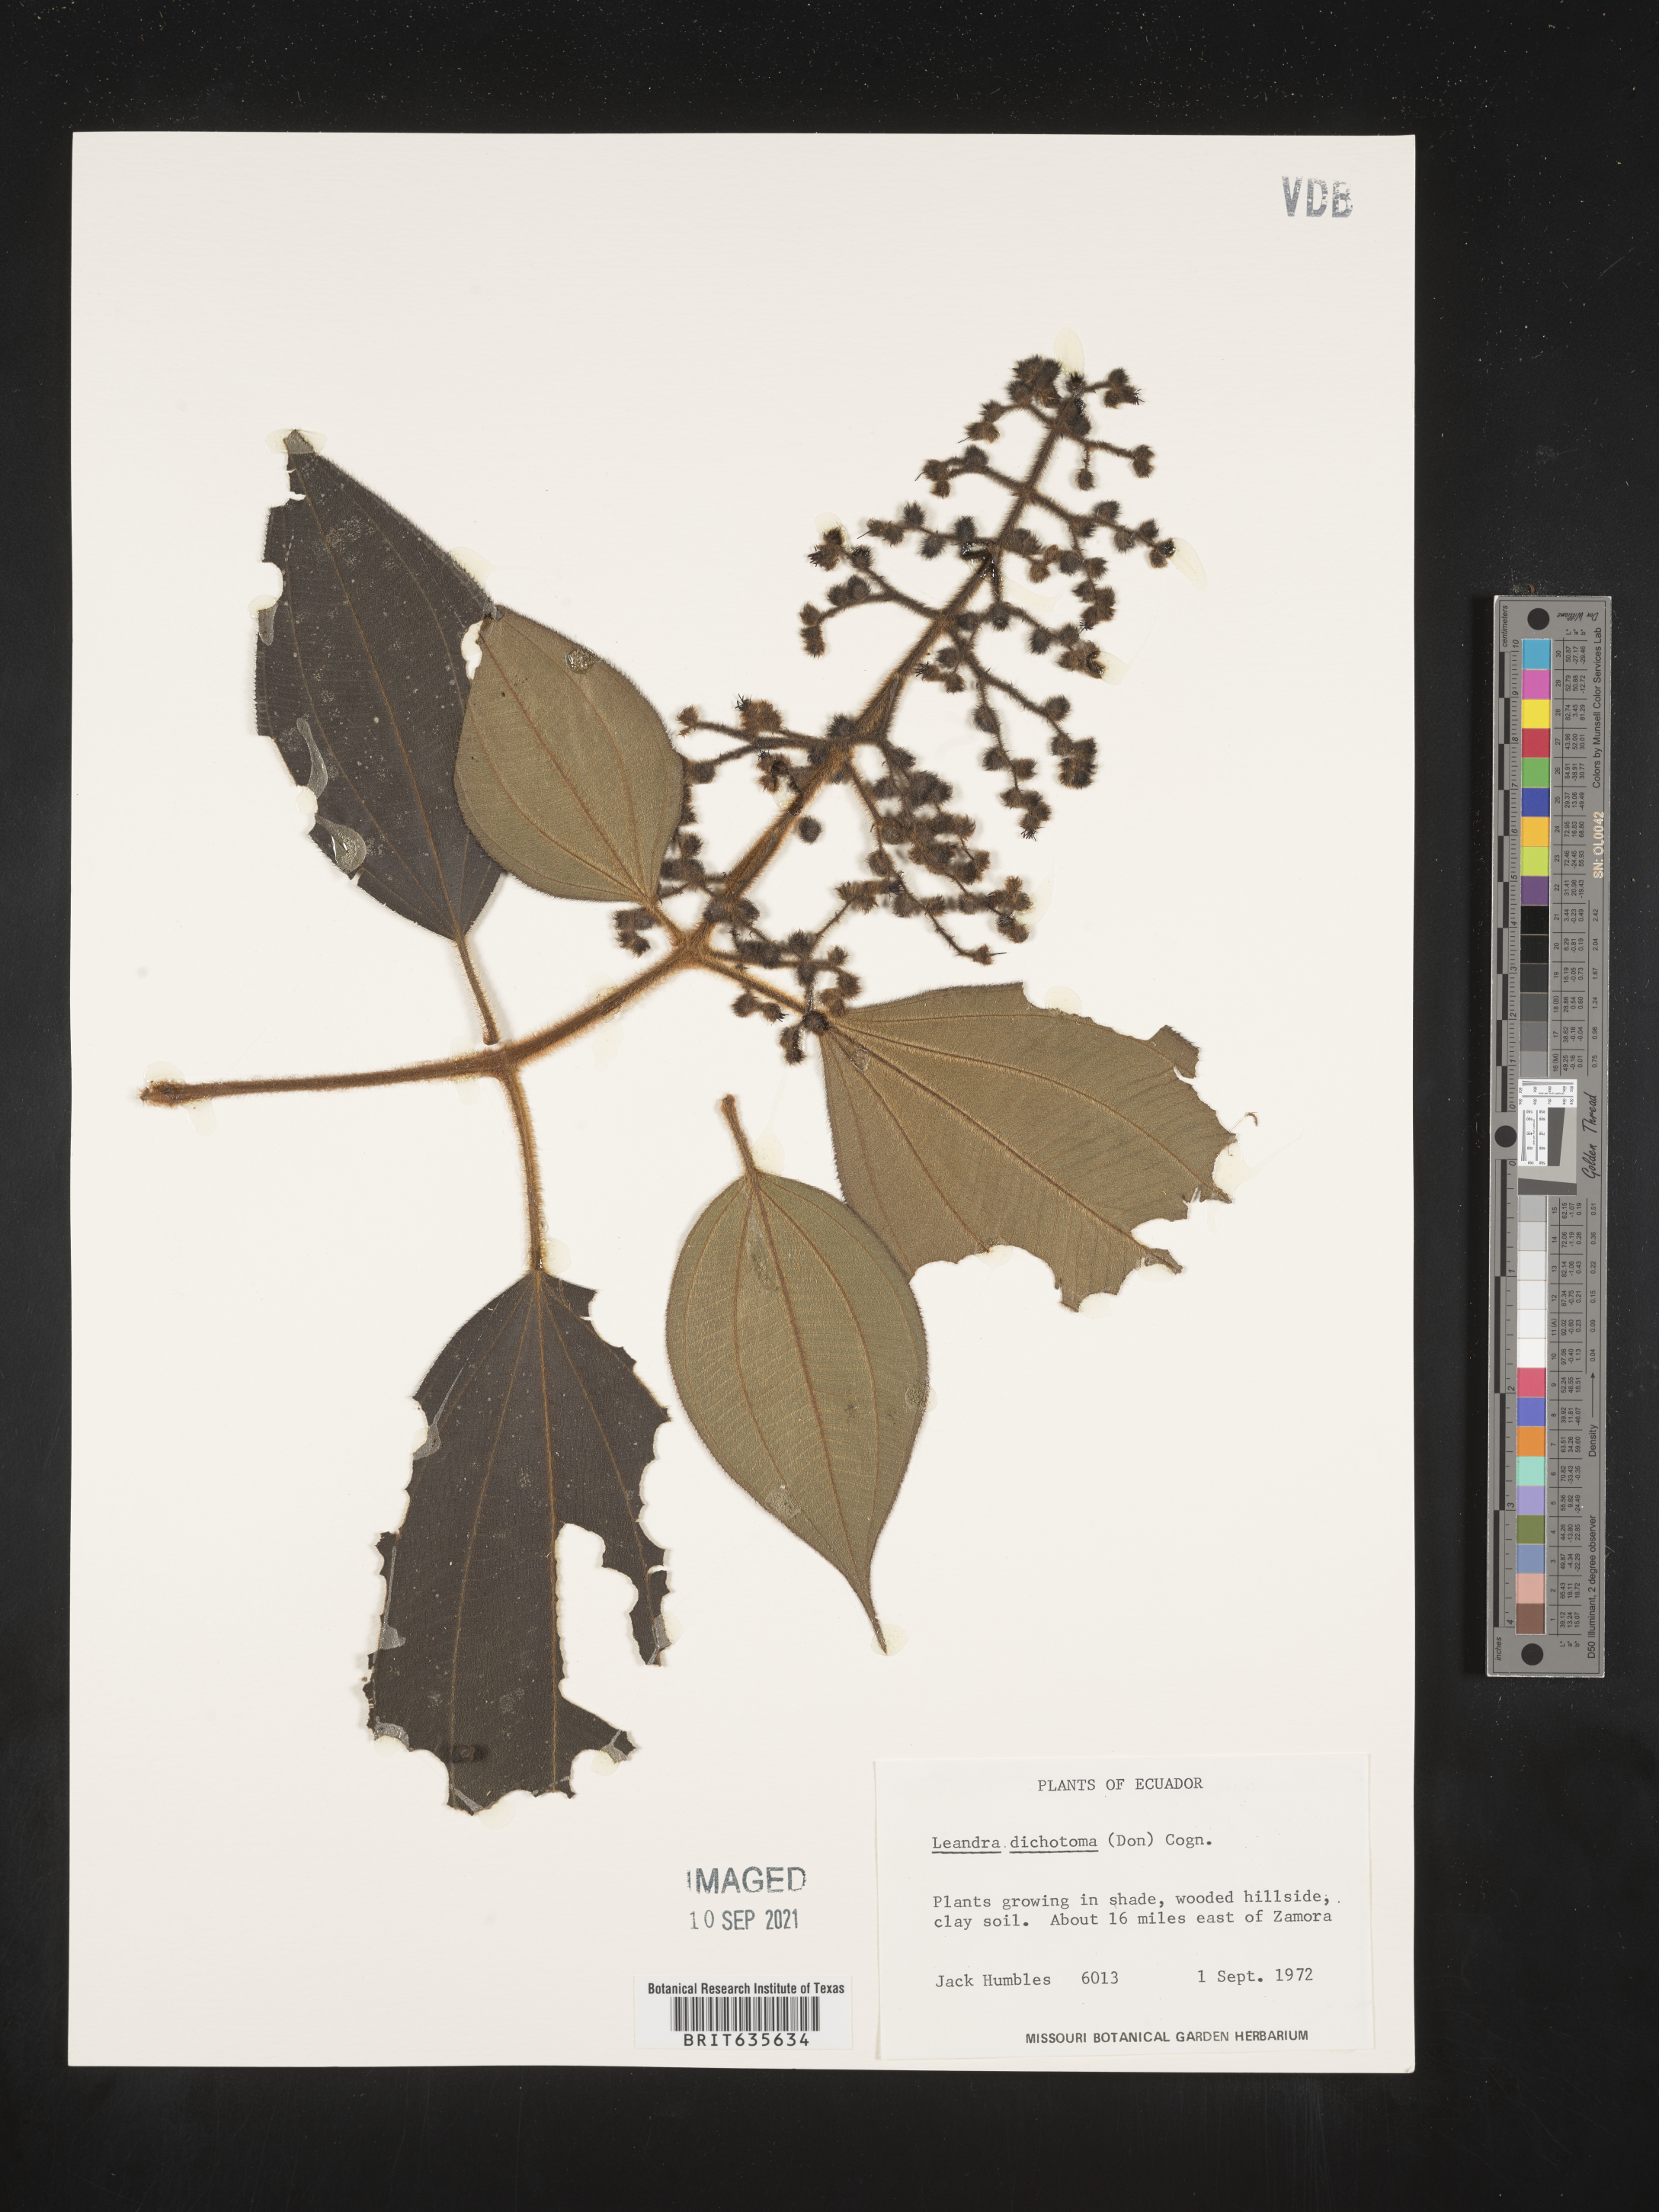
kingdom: Plantae
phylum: Tracheophyta
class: Magnoliopsida
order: Myrtales
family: Melastomataceae
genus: Miconia
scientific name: Miconia
